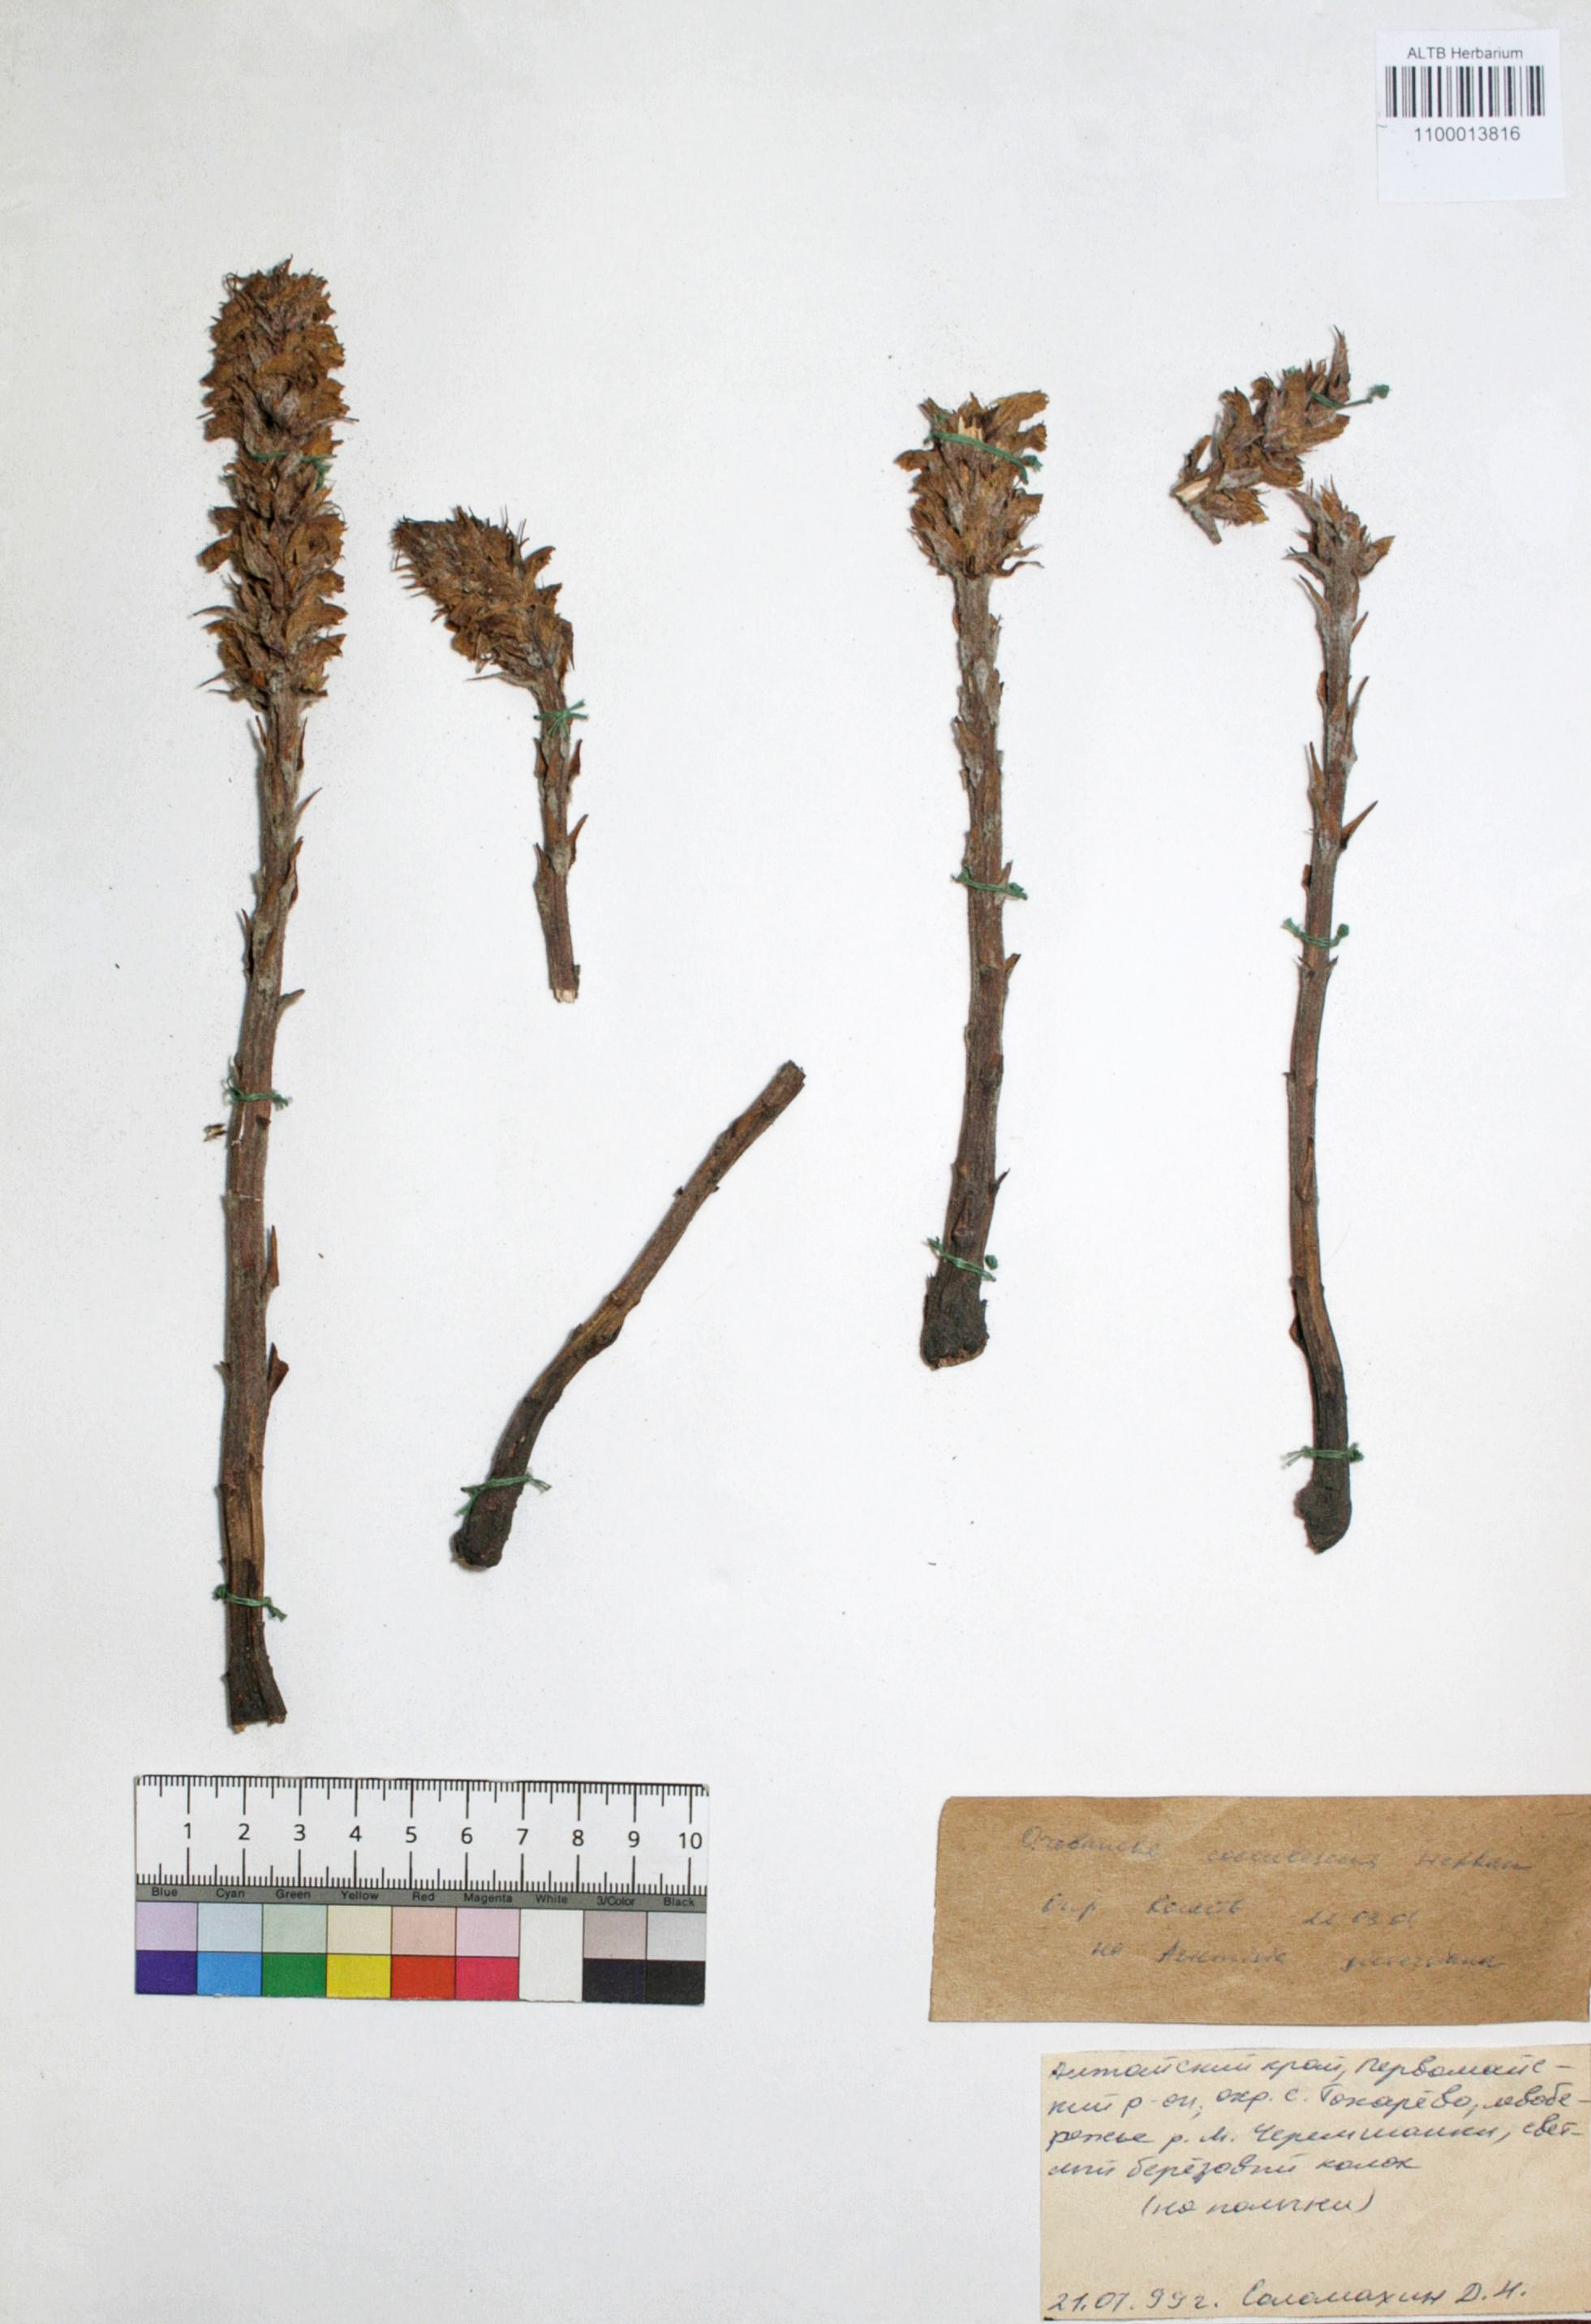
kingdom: Plantae
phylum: Tracheophyta
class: Magnoliopsida
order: Lamiales
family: Orobanchaceae
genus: Orobanche
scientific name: Orobanche coerulescens
